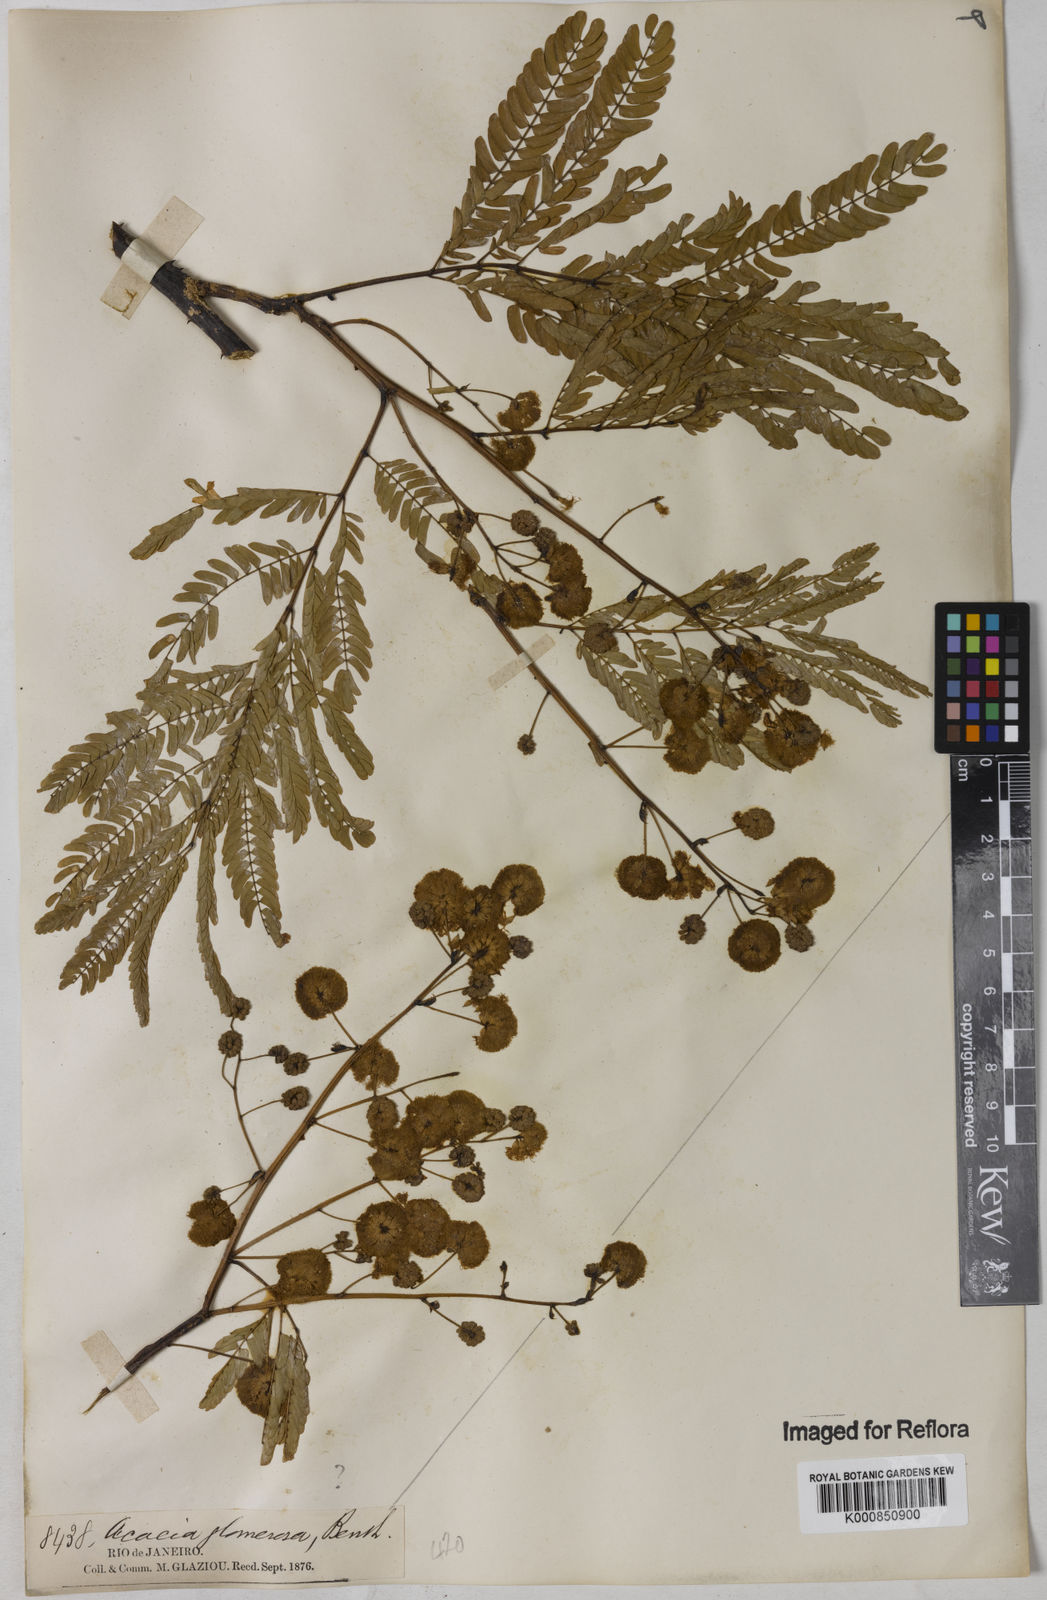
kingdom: Plantae
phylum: Tracheophyta
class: Magnoliopsida
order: Fabales
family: Fabaceae
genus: Senegalia
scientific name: Senegalia polyphylla
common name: White-tamarind
